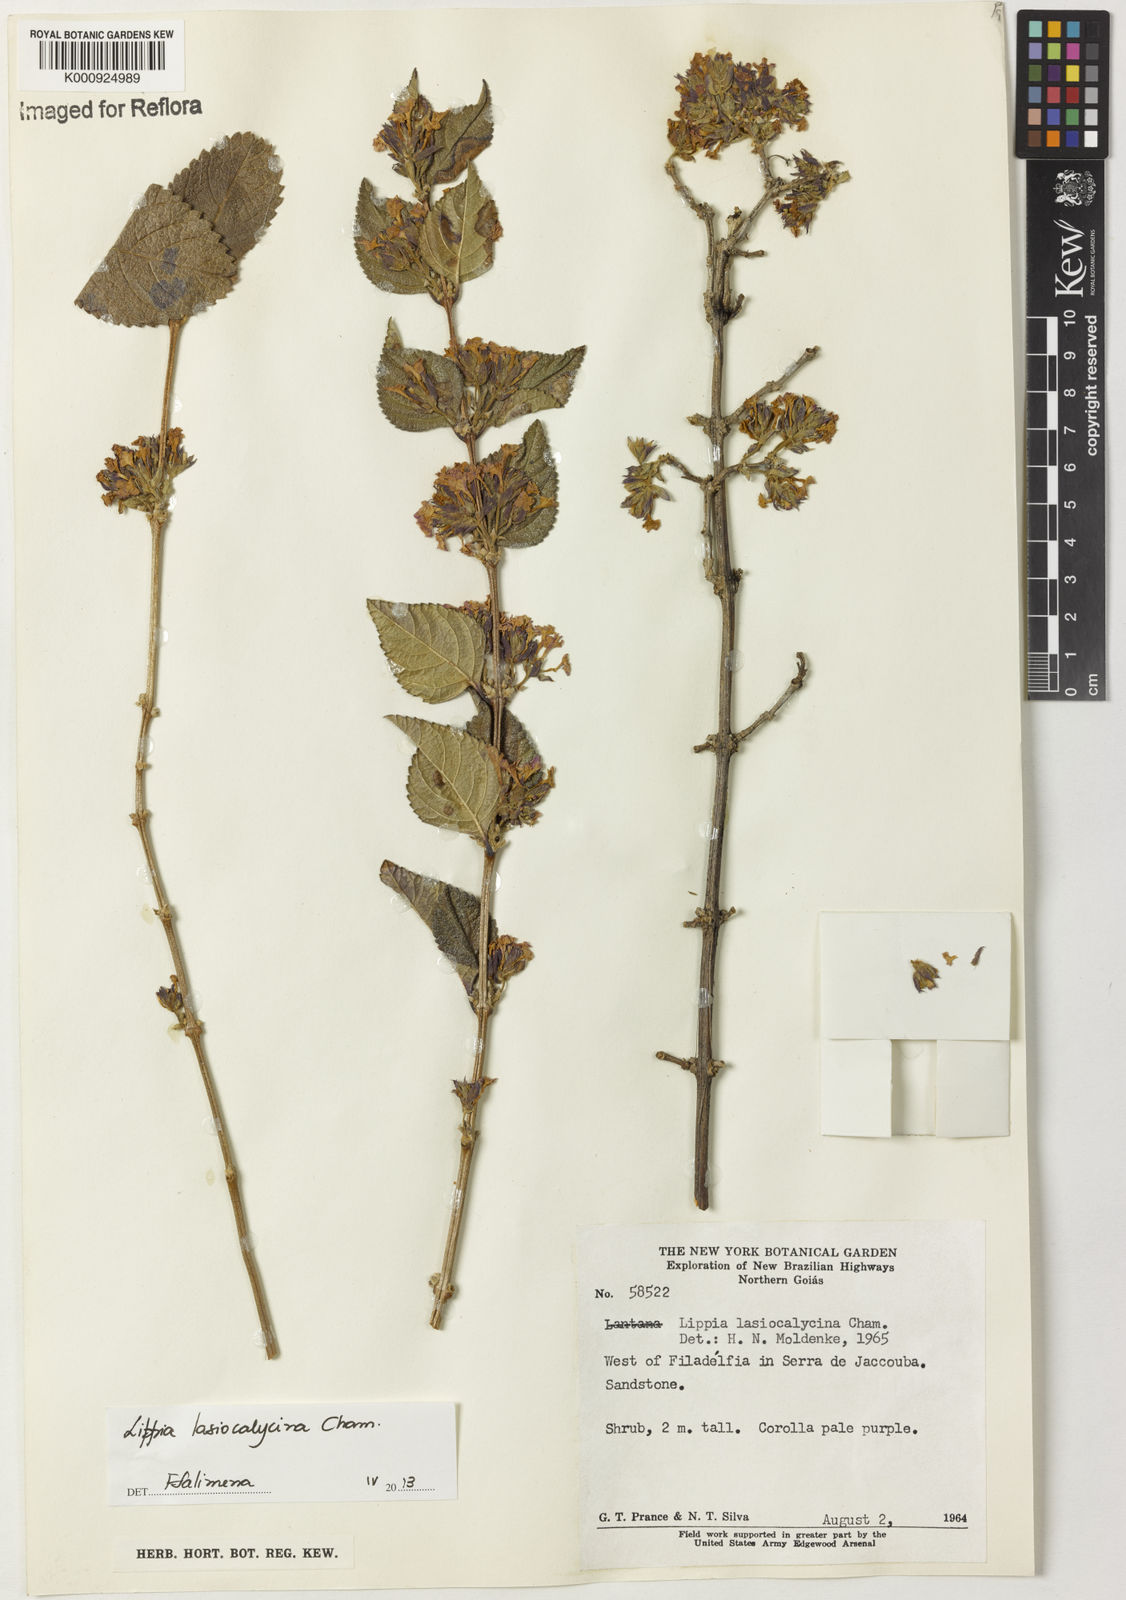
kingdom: Plantae
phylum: Tracheophyta
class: Magnoliopsida
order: Lamiales
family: Verbenaceae
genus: Lippia
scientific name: Lippia lasiocalycina
